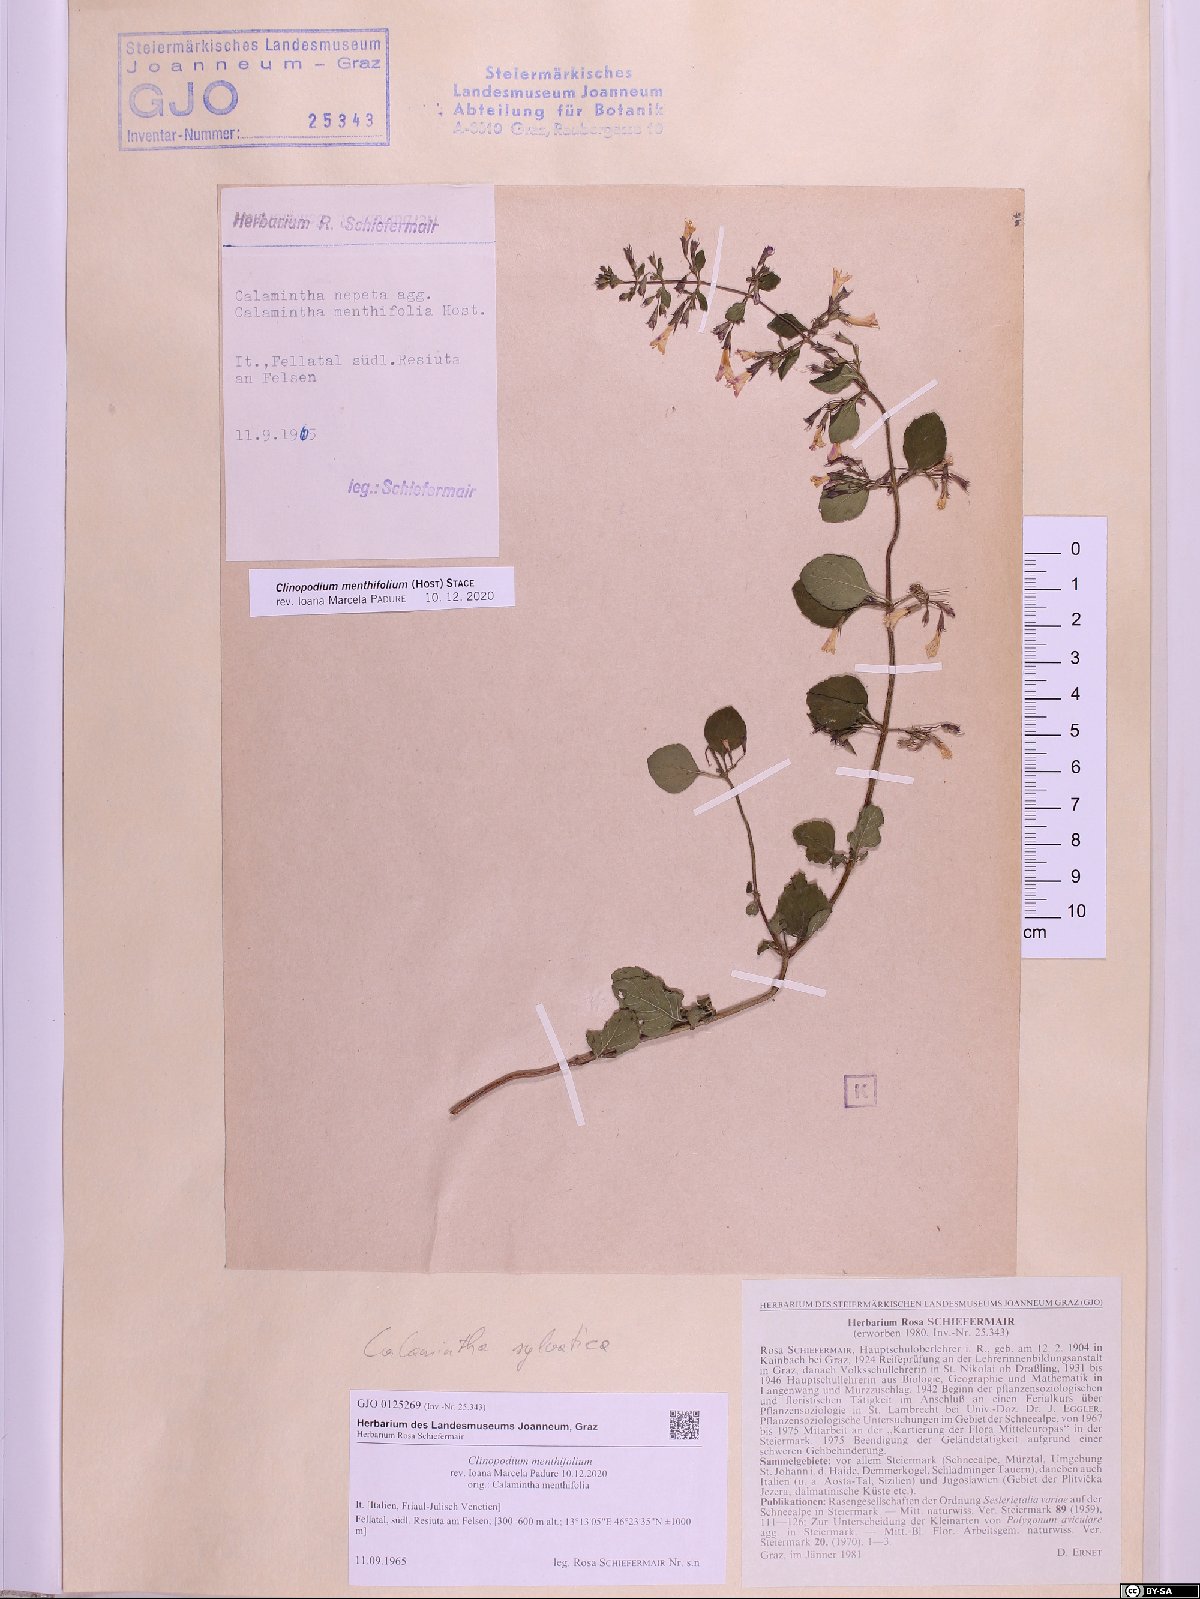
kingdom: Plantae
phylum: Tracheophyta
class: Magnoliopsida
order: Lamiales
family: Lamiaceae
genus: Clinopodium
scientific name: Clinopodium menthifolium
